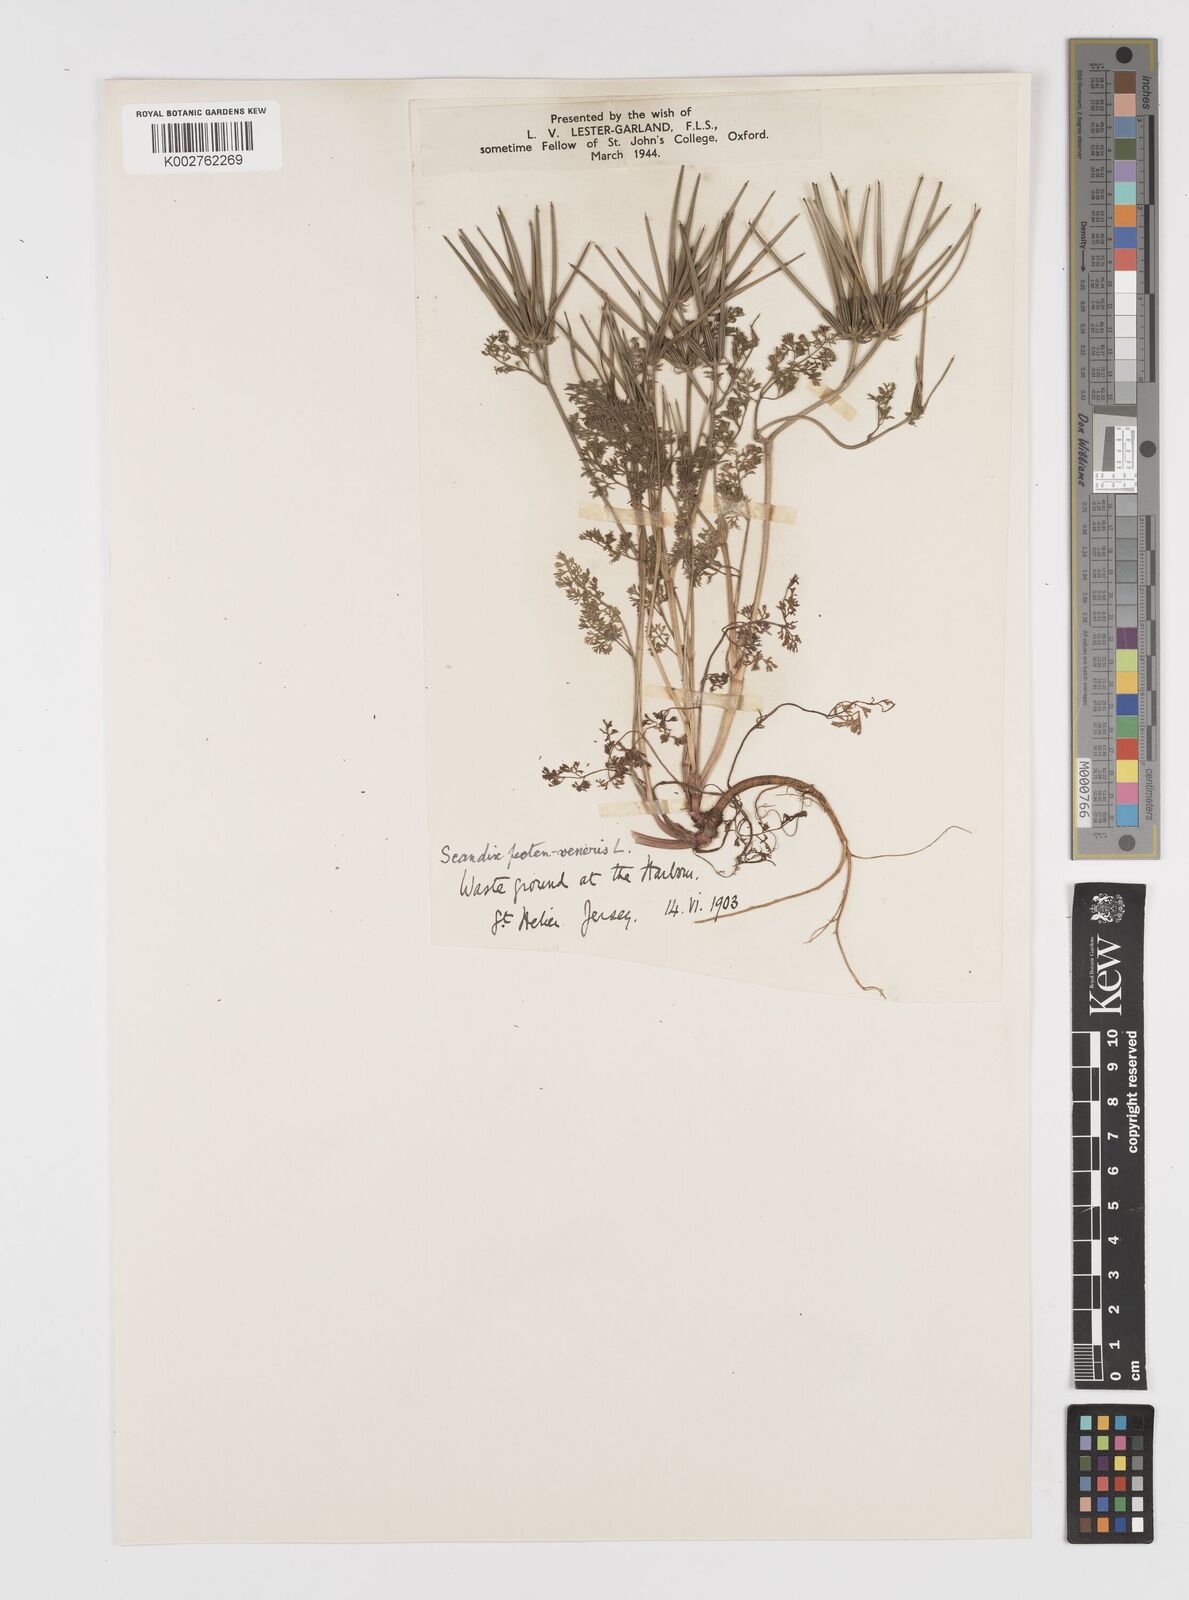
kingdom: Plantae
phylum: Tracheophyta
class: Magnoliopsida
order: Apiales
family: Apiaceae
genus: Scandix
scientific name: Scandix pecten-veneris
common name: Shepherd's-needle
